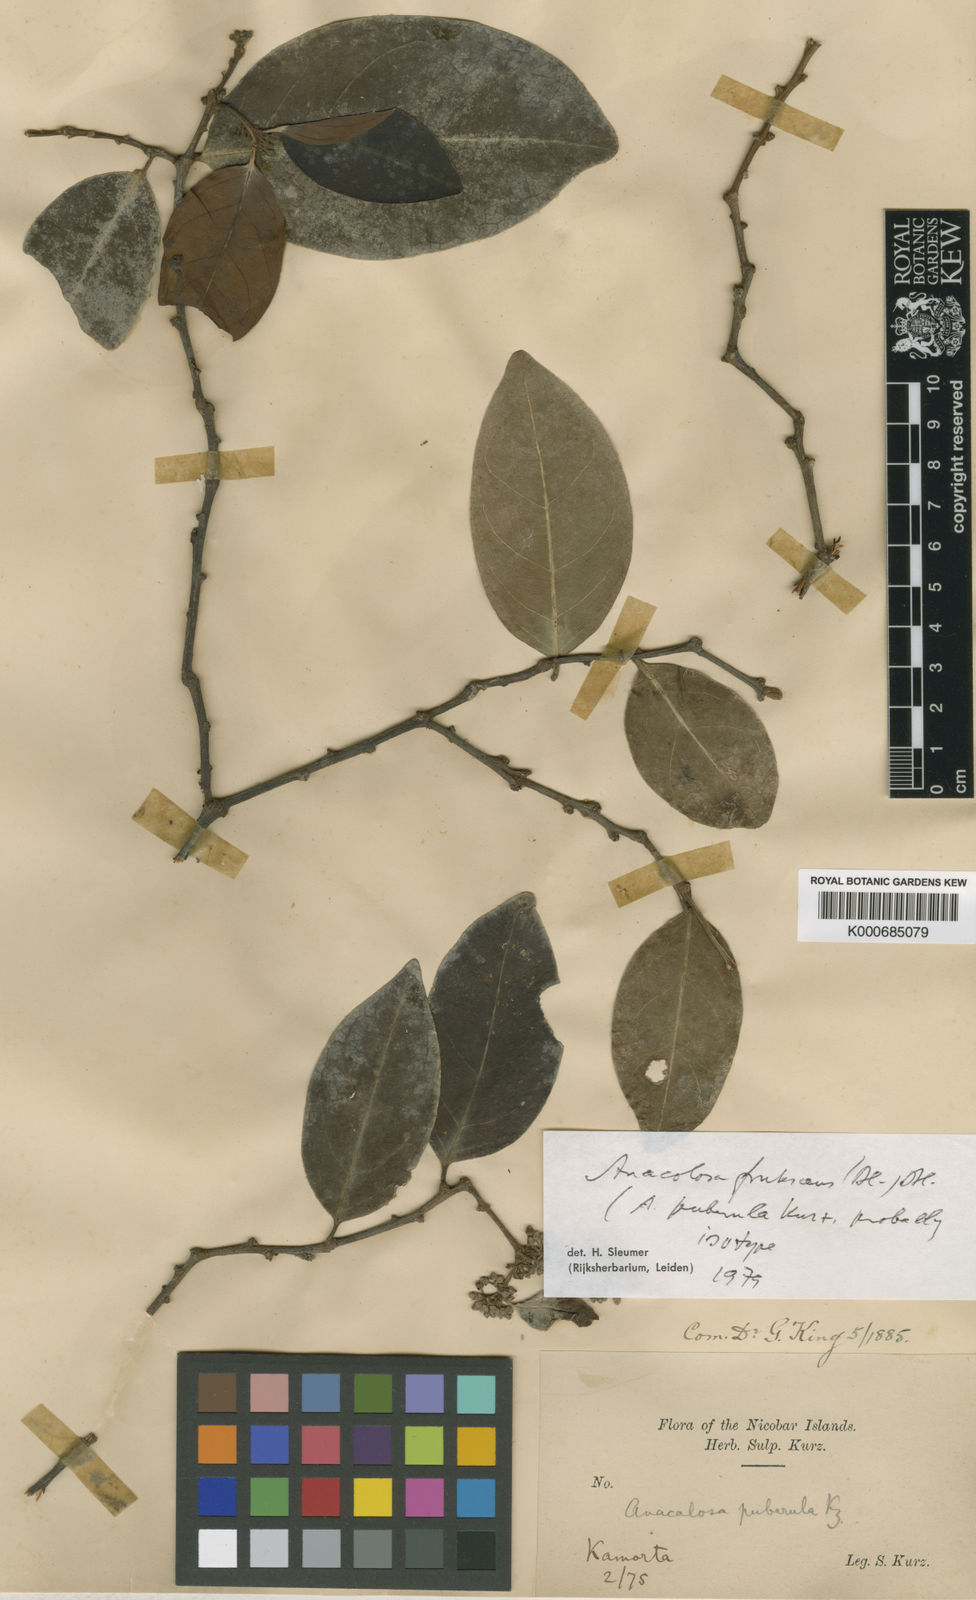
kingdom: Plantae
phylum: Tracheophyta
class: Magnoliopsida
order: Santalales
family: Aptandraceae
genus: Anacolosa
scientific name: Anacolosa frutescens
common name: Galo nut
